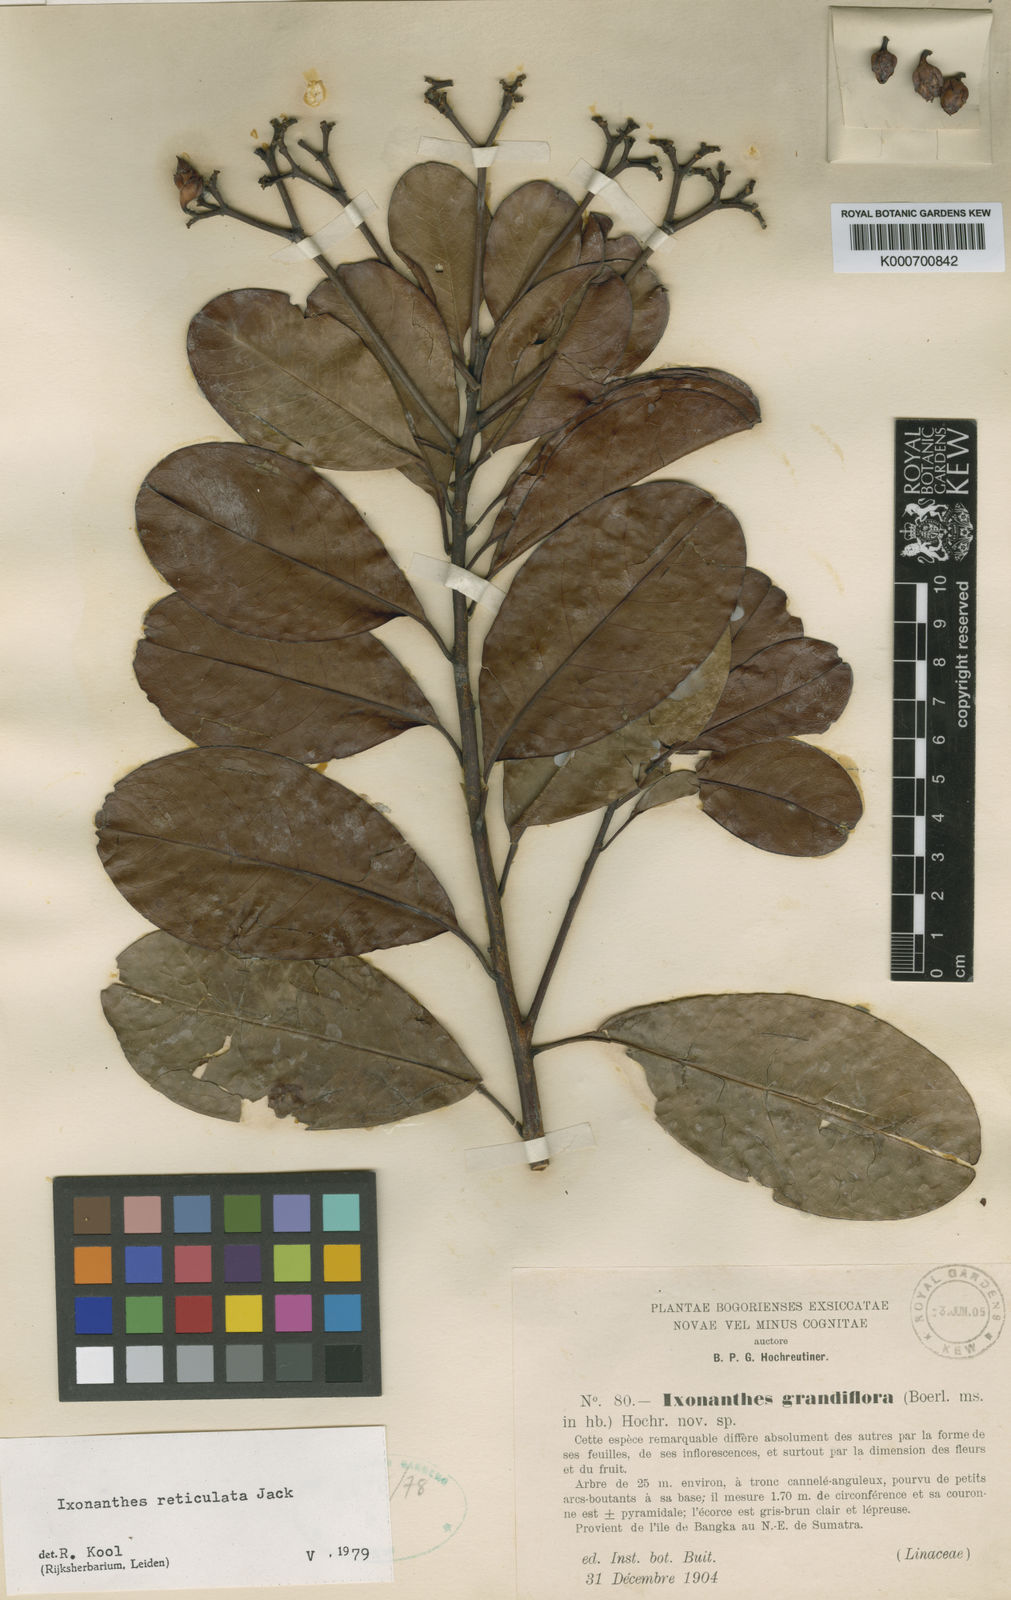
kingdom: Plantae
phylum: Tracheophyta
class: Magnoliopsida
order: Malpighiales
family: Ixonanthaceae
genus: Ixonanthes
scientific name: Ixonanthes reticulata
